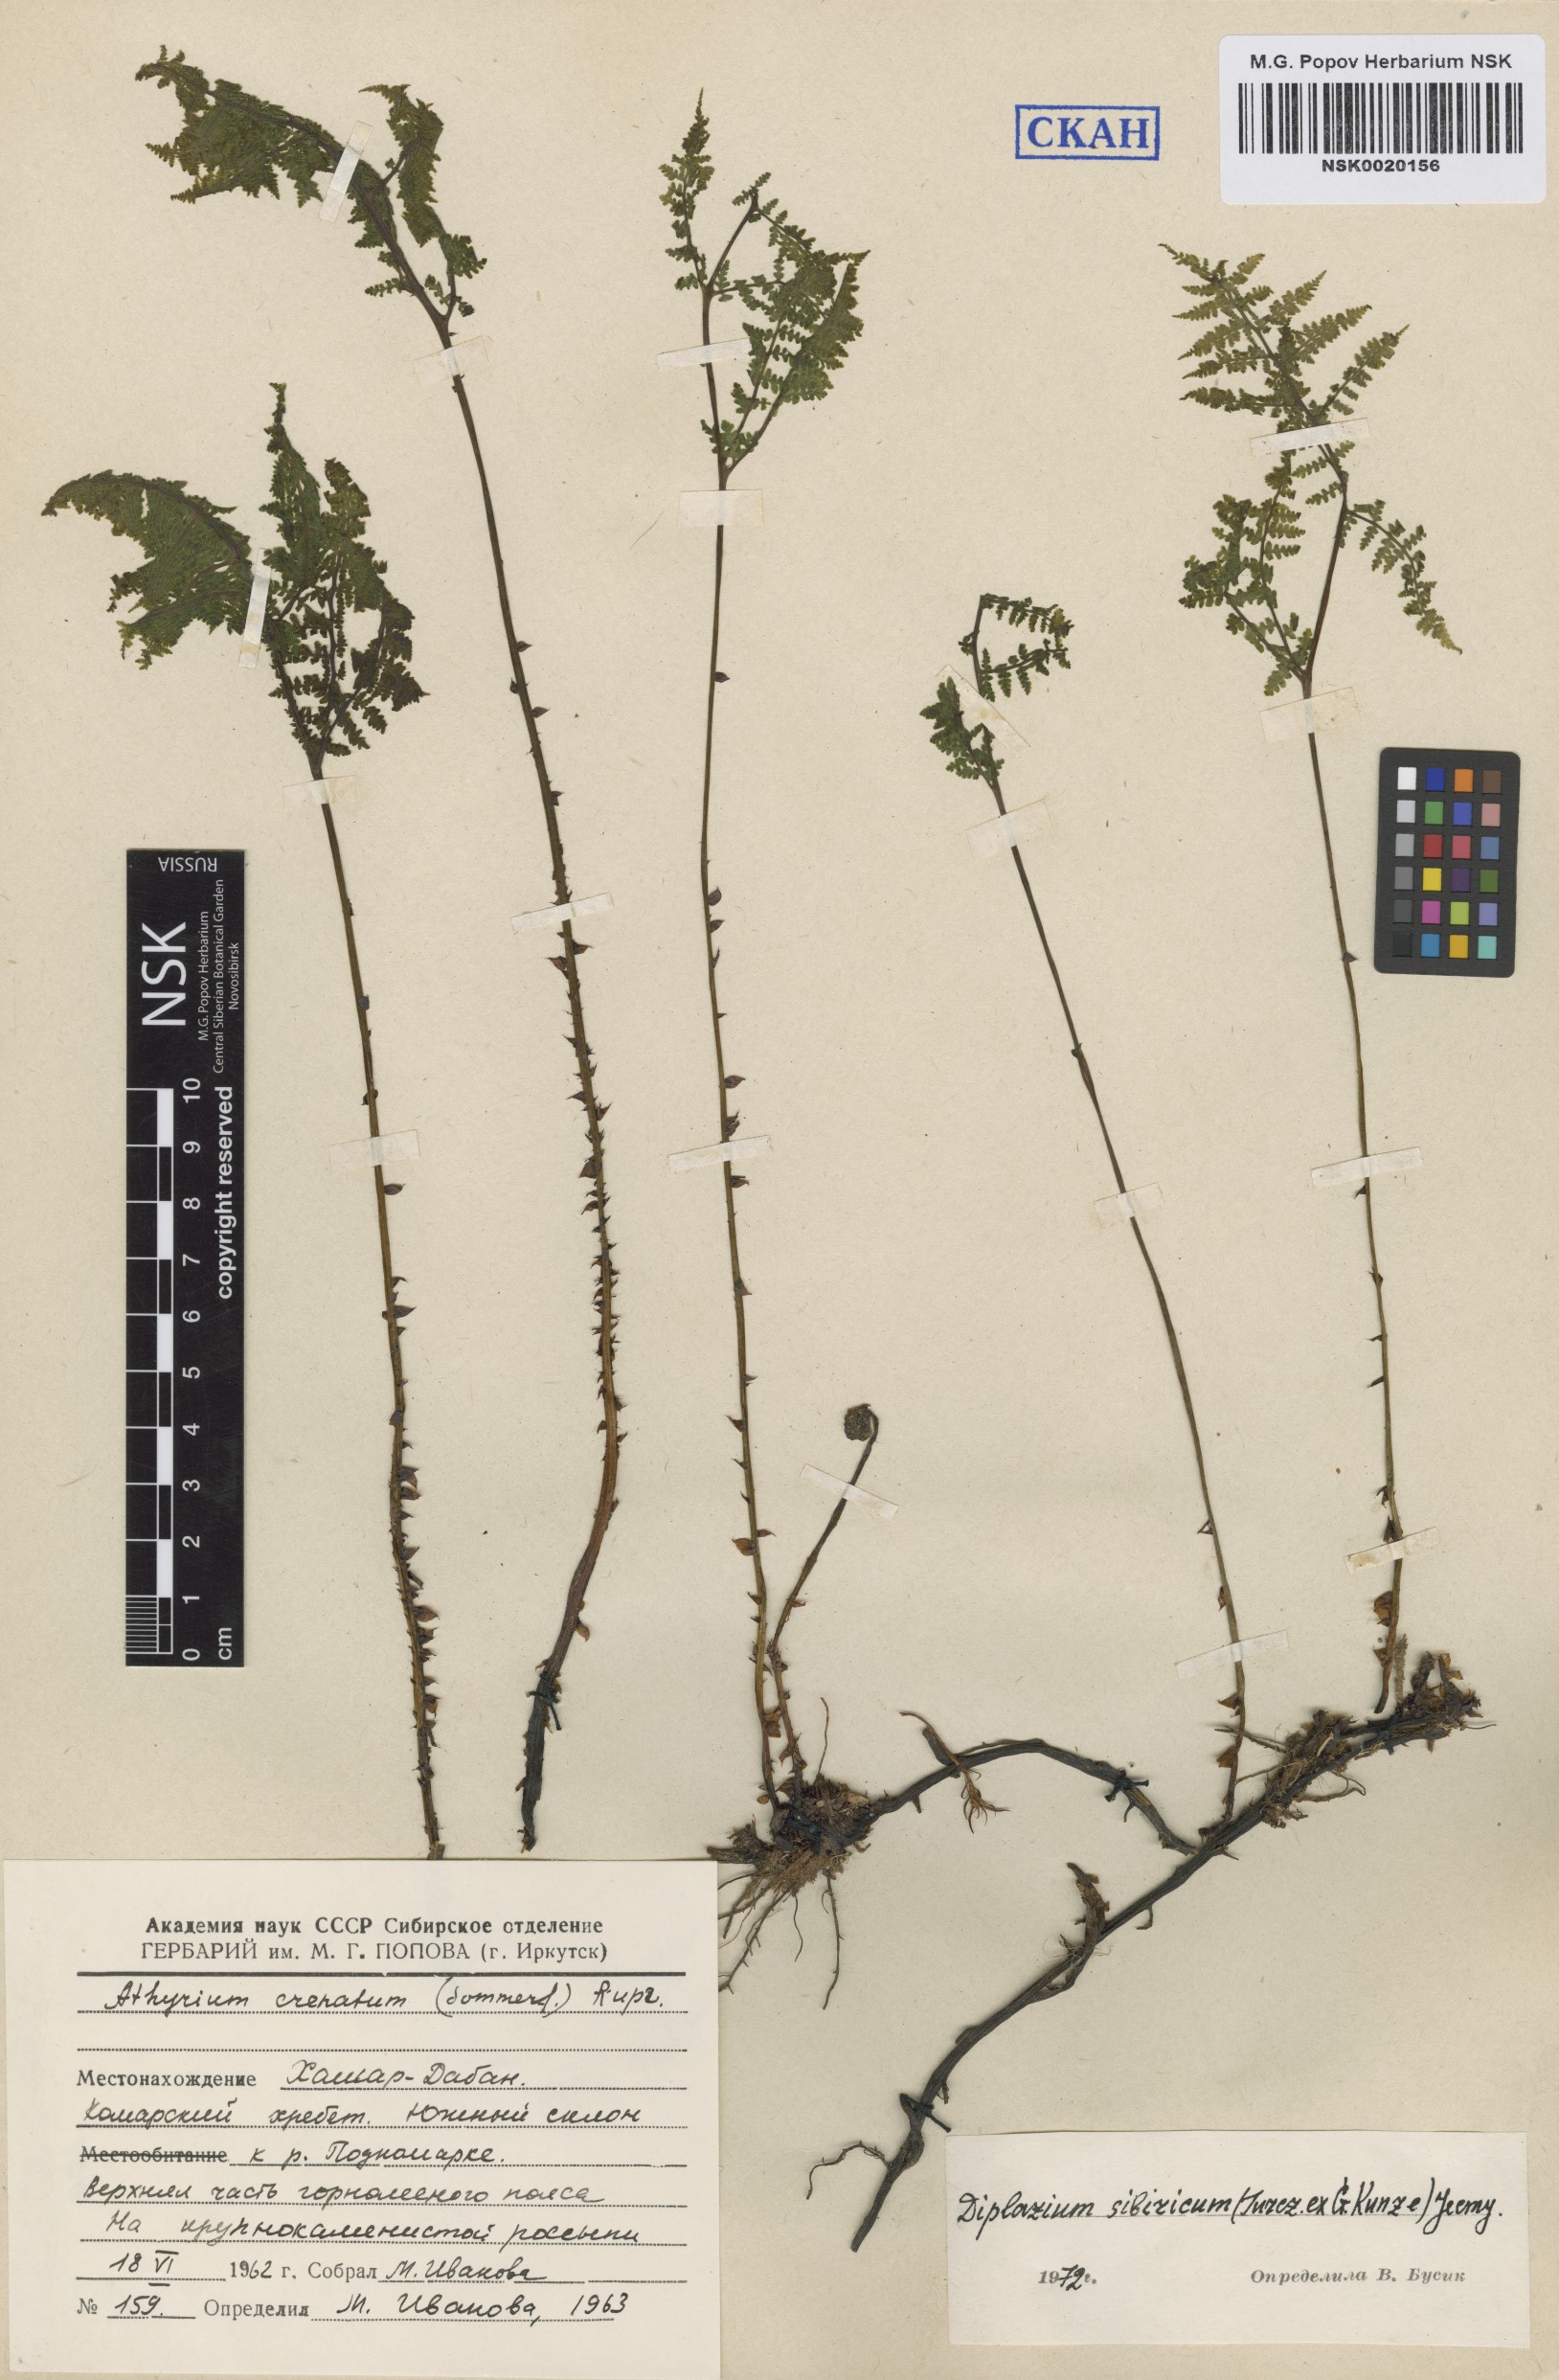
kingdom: Plantae
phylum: Tracheophyta
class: Polypodiopsida
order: Polypodiales
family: Athyriaceae
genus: Diplazium
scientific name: Diplazium sibiricum
